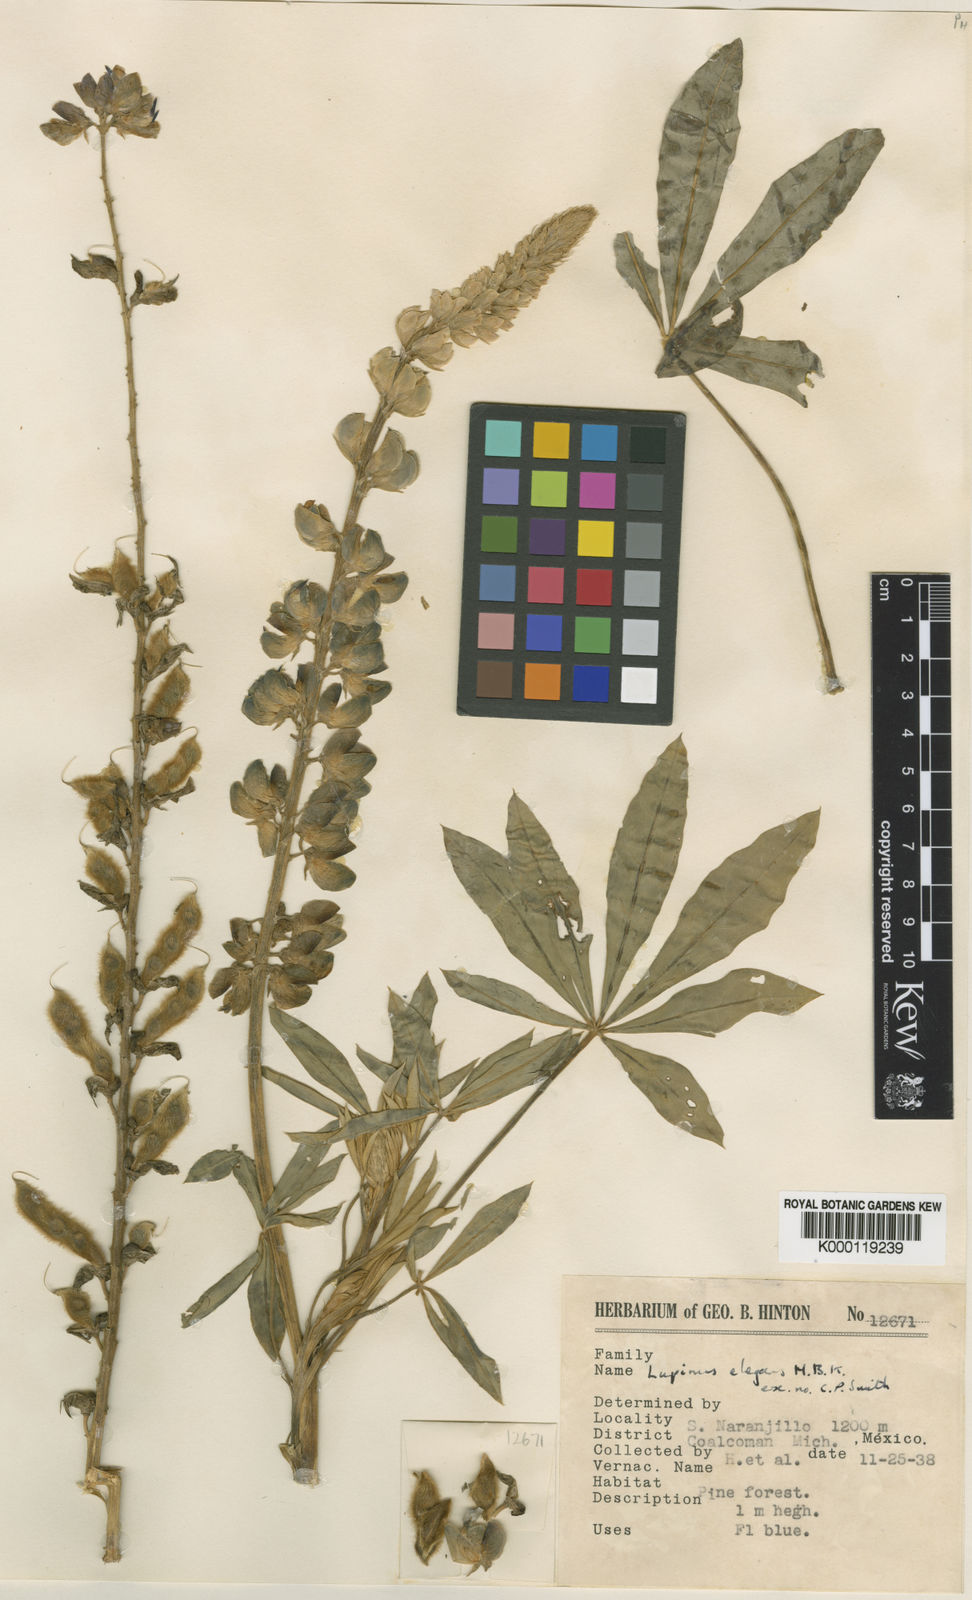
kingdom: Plantae
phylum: Tracheophyta
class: Magnoliopsida
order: Fabales
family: Fabaceae
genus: Lupinus
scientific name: Lupinus elegans
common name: Mexican lupine
